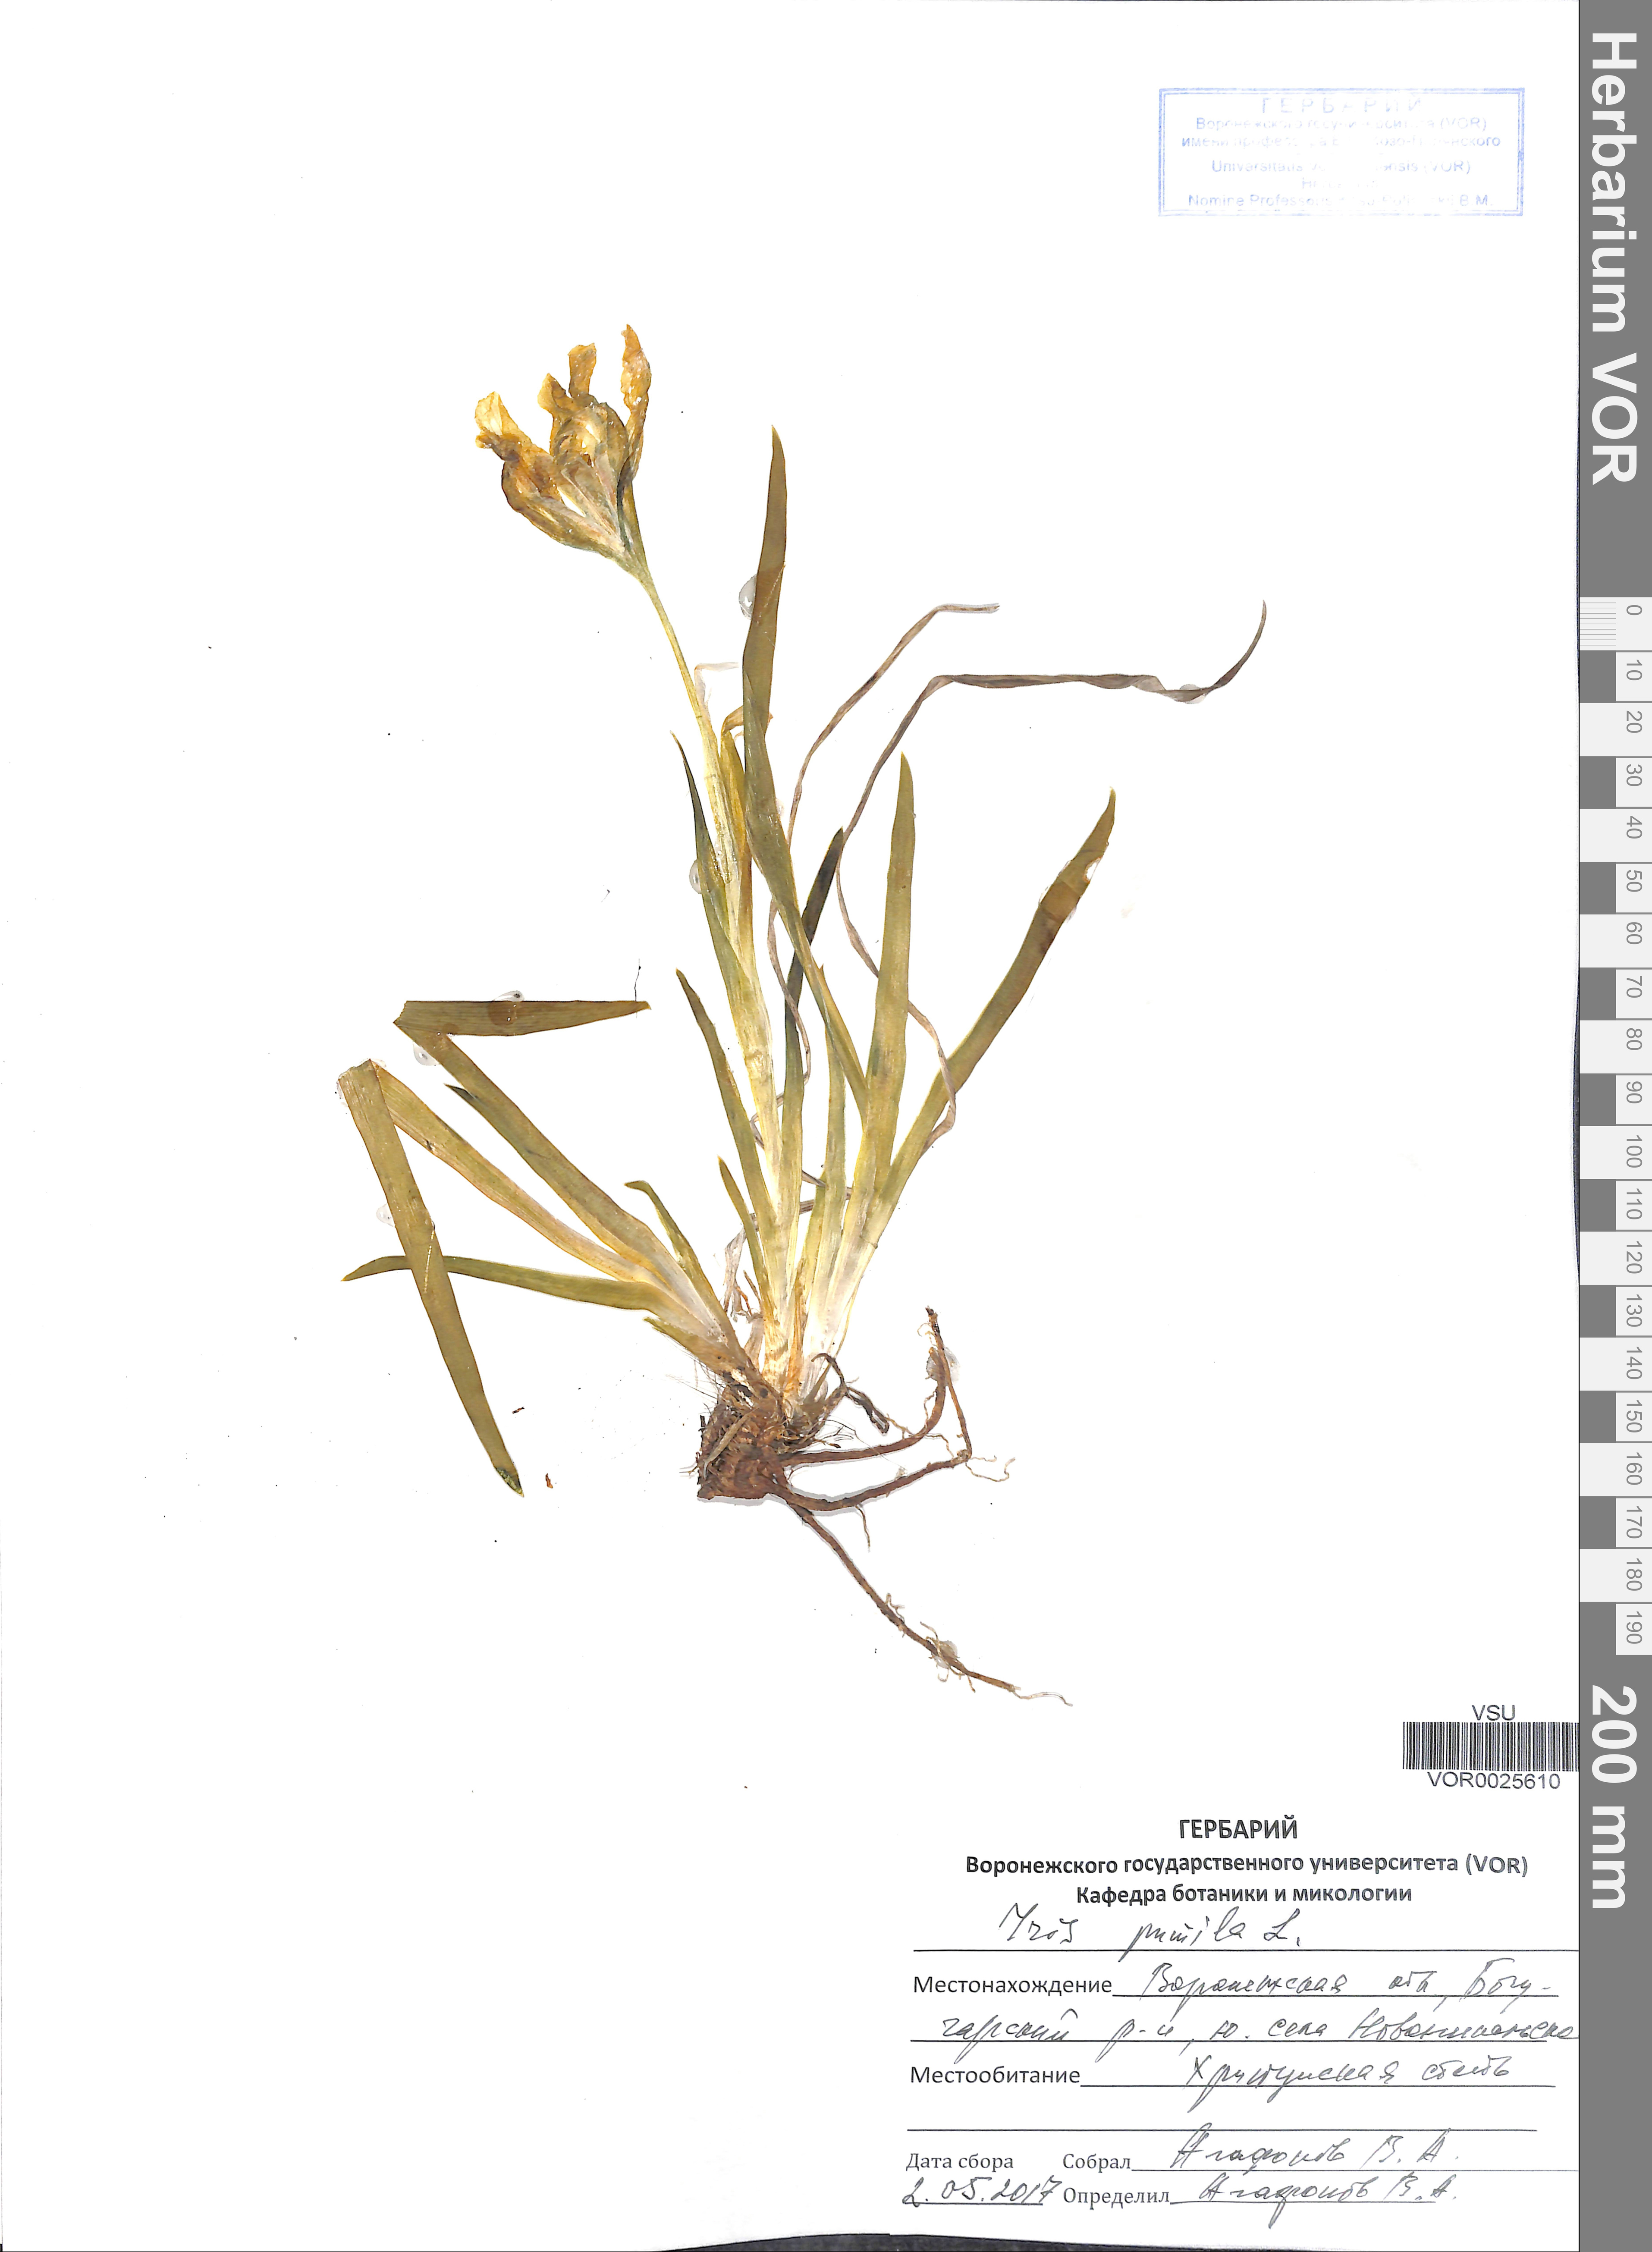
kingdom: Plantae
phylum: Tracheophyta
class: Liliopsida
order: Asparagales
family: Iridaceae
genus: Iris
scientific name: Iris pumila
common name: Dwarf iris
